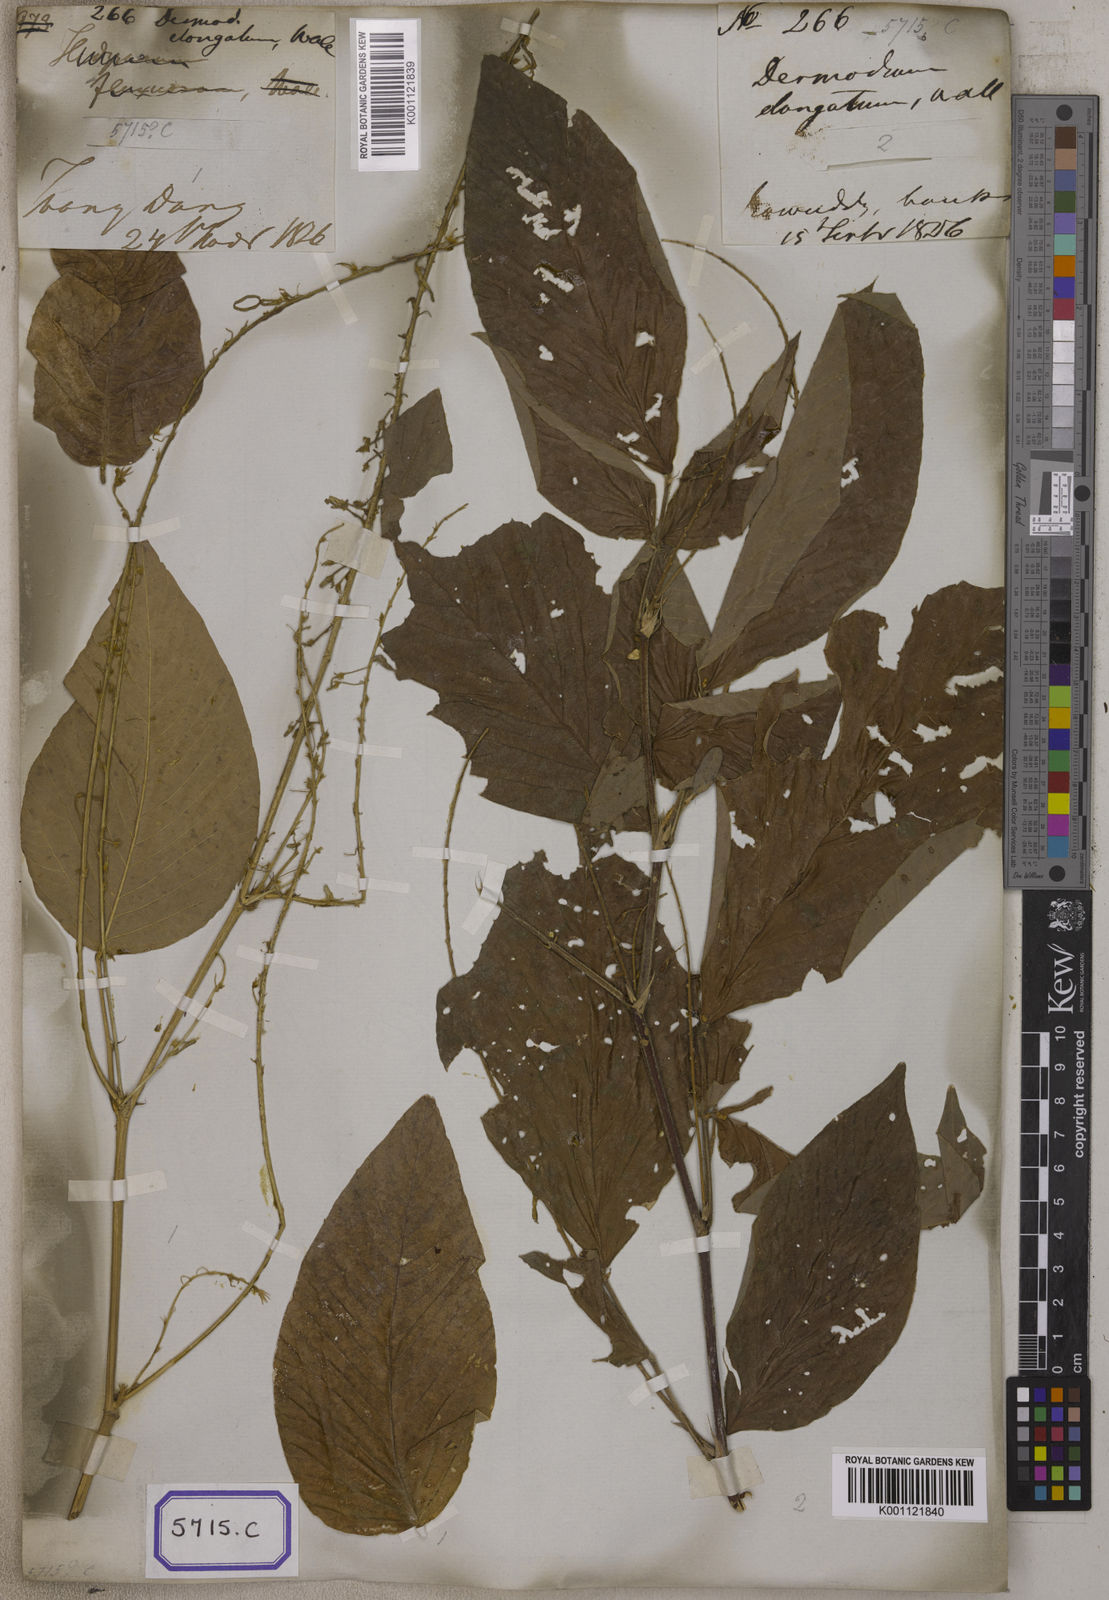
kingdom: Plantae
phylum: Tracheophyta
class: Magnoliopsida
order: Fabales
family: Fabaceae
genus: Desmodium
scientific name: Desmodium
